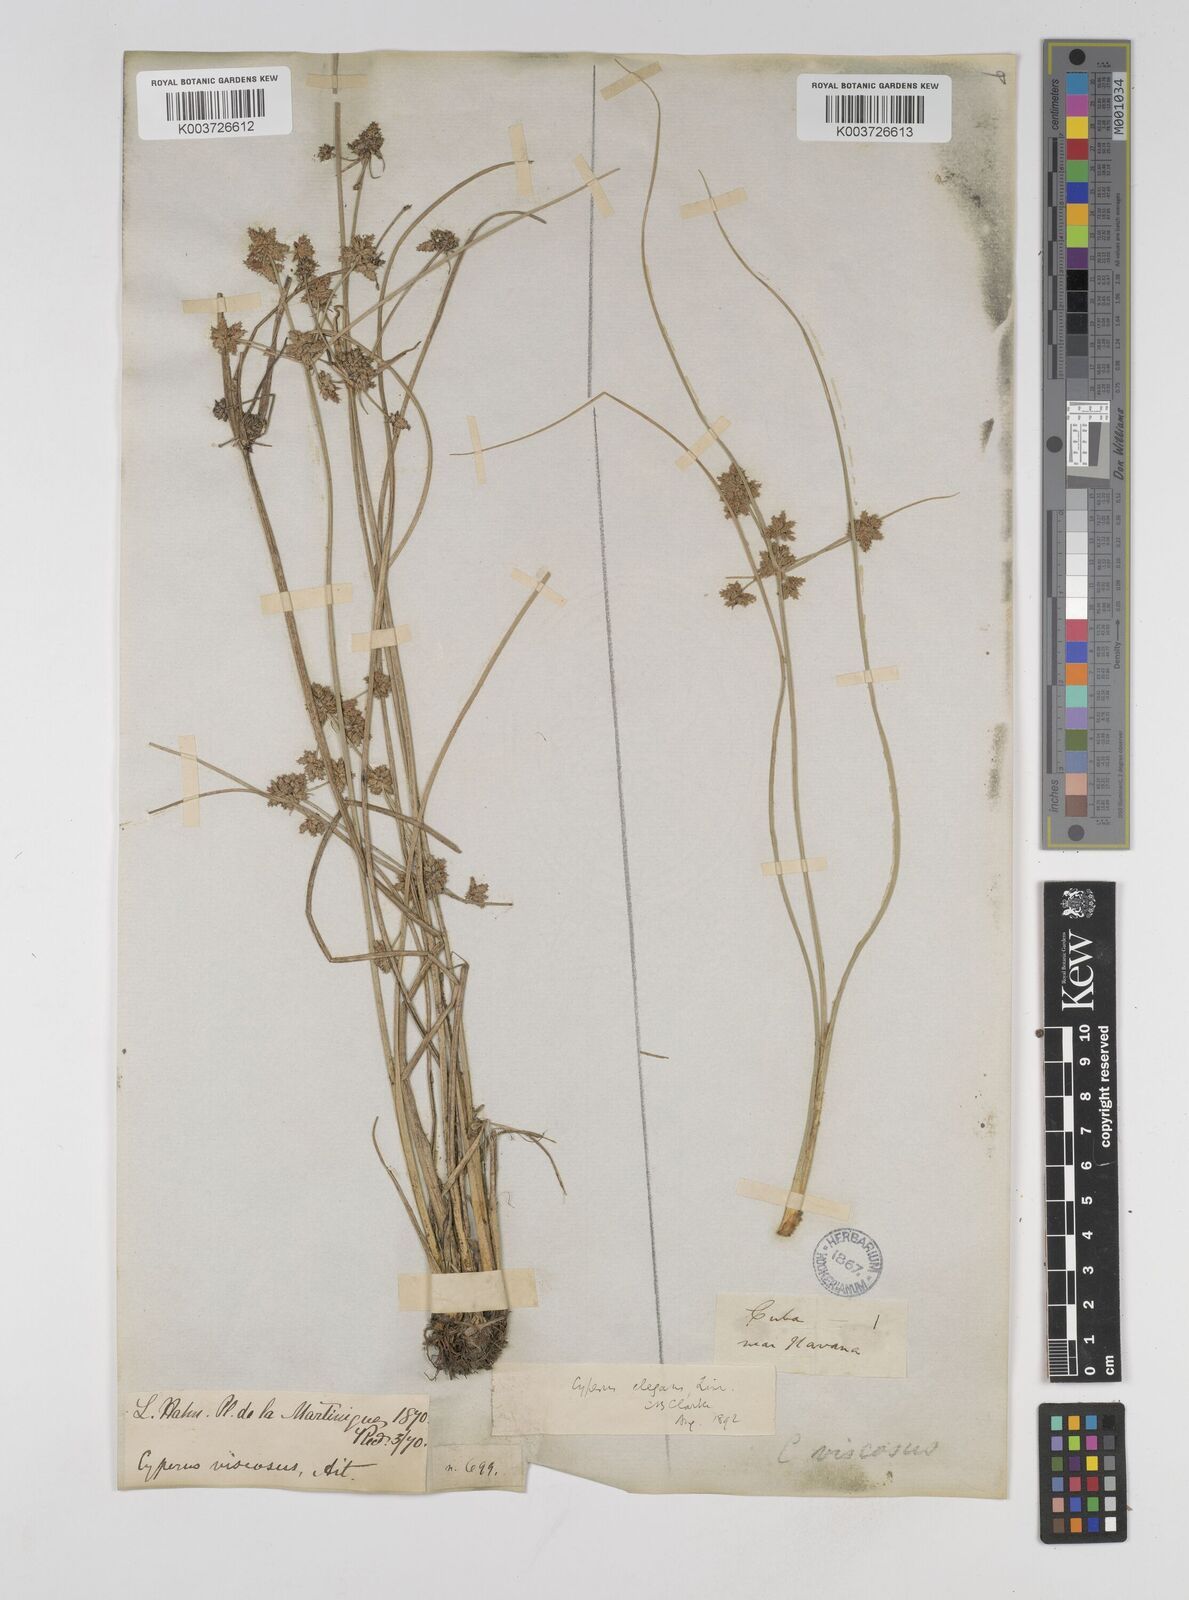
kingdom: Plantae
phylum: Tracheophyta
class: Liliopsida
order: Poales
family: Cyperaceae
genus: Cyperus
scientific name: Cyperus elegans
